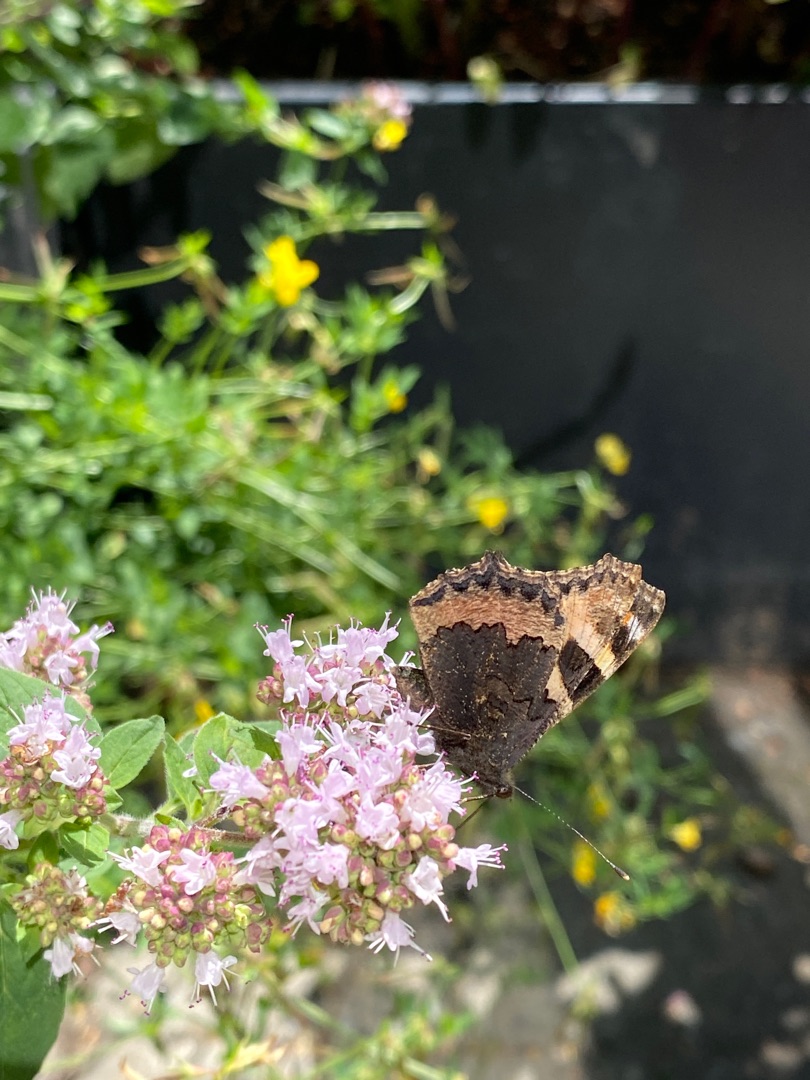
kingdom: Animalia
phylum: Arthropoda
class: Insecta
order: Lepidoptera
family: Nymphalidae
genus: Aglais
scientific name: Aglais urticae
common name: Nældens takvinge
